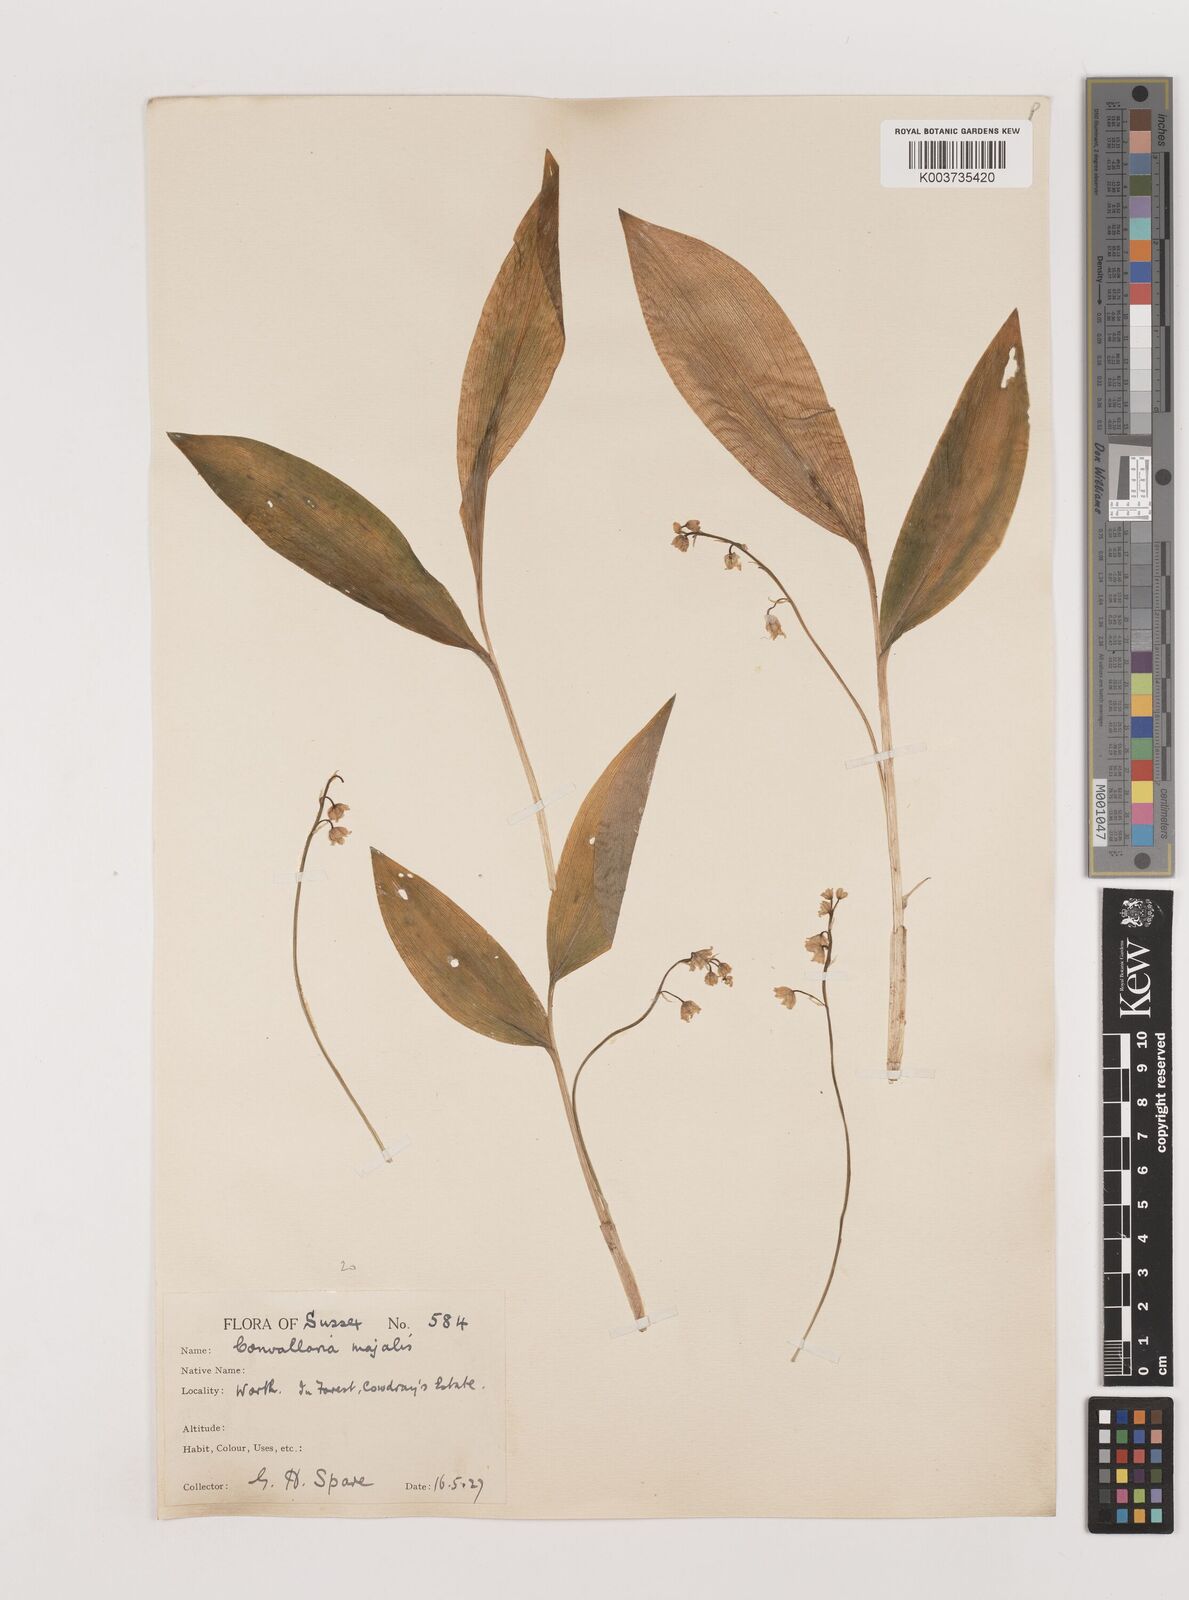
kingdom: Plantae
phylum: Tracheophyta
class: Liliopsida
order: Asparagales
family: Asparagaceae
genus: Convallaria
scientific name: Convallaria majalis
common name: Lily-of-the-valley
